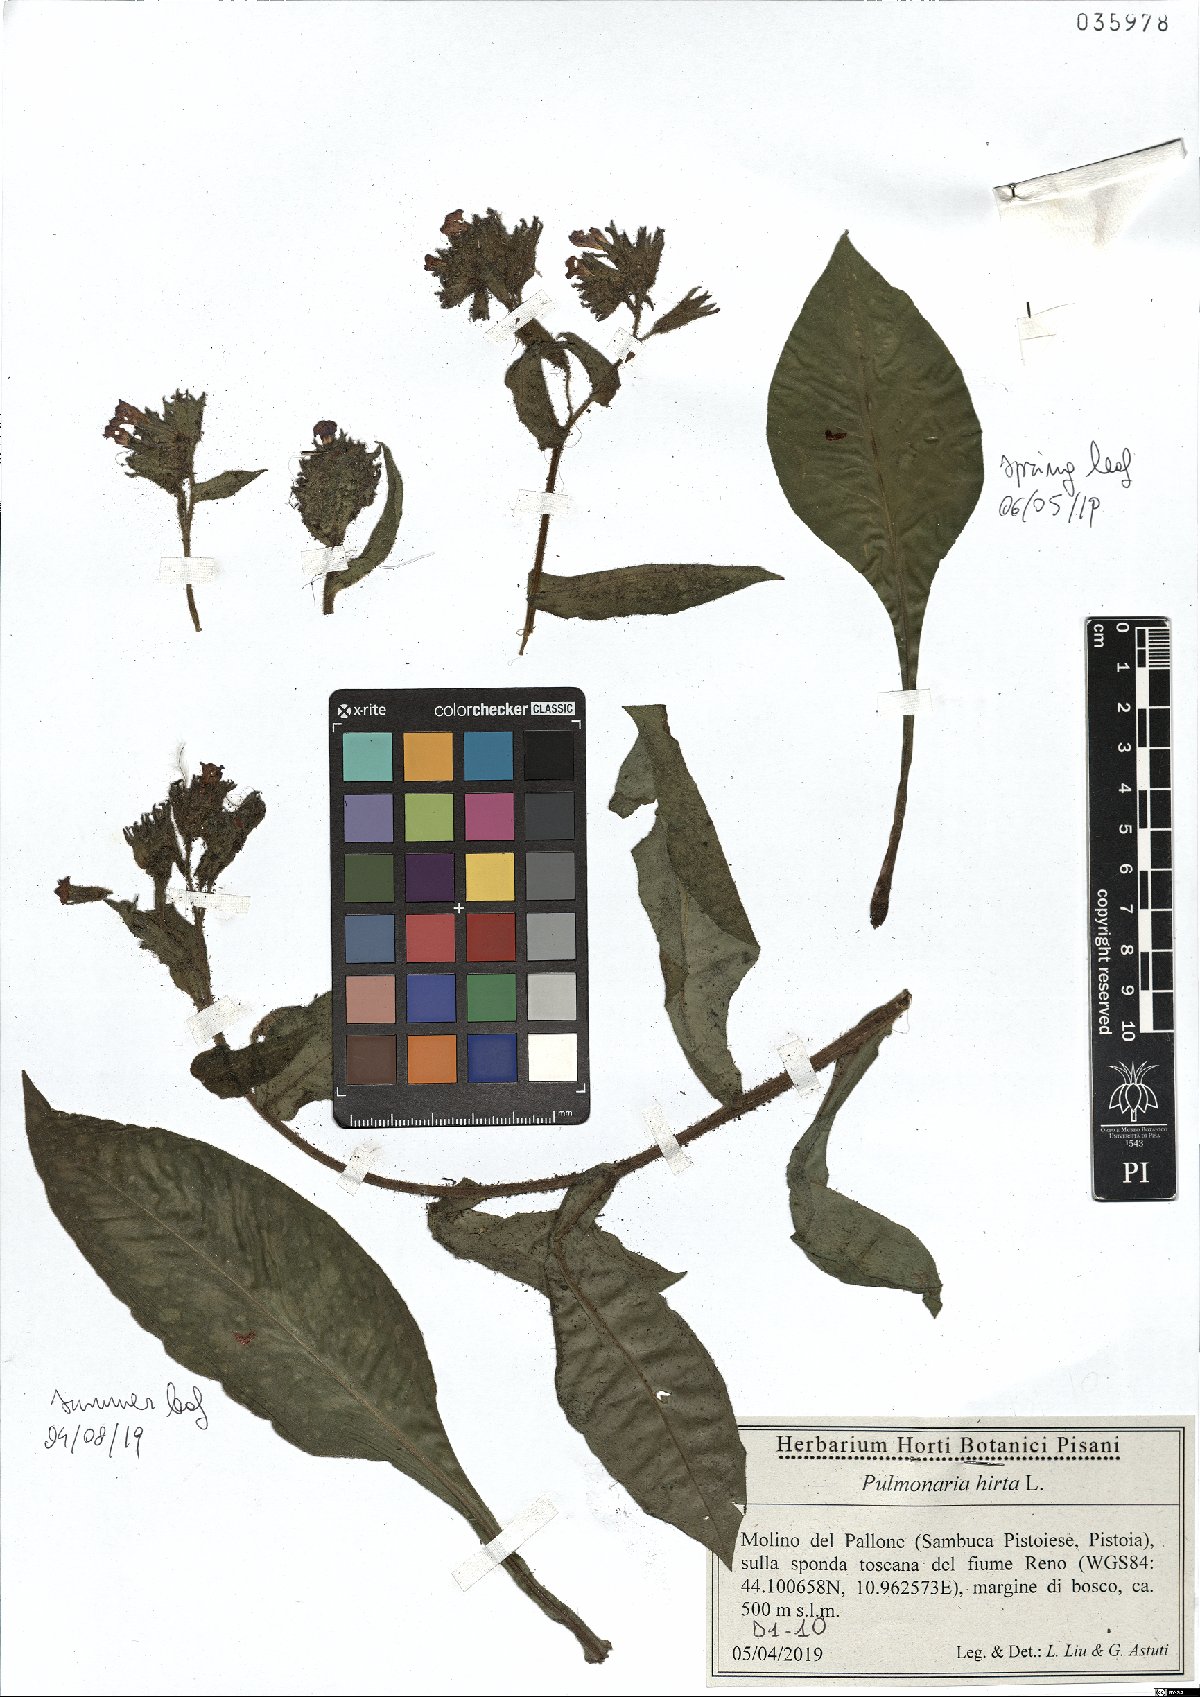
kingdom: Plantae
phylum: Tracheophyta
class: Magnoliopsida
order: Boraginales
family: Boraginaceae
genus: Pulmonaria
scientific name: Pulmonaria hirta
